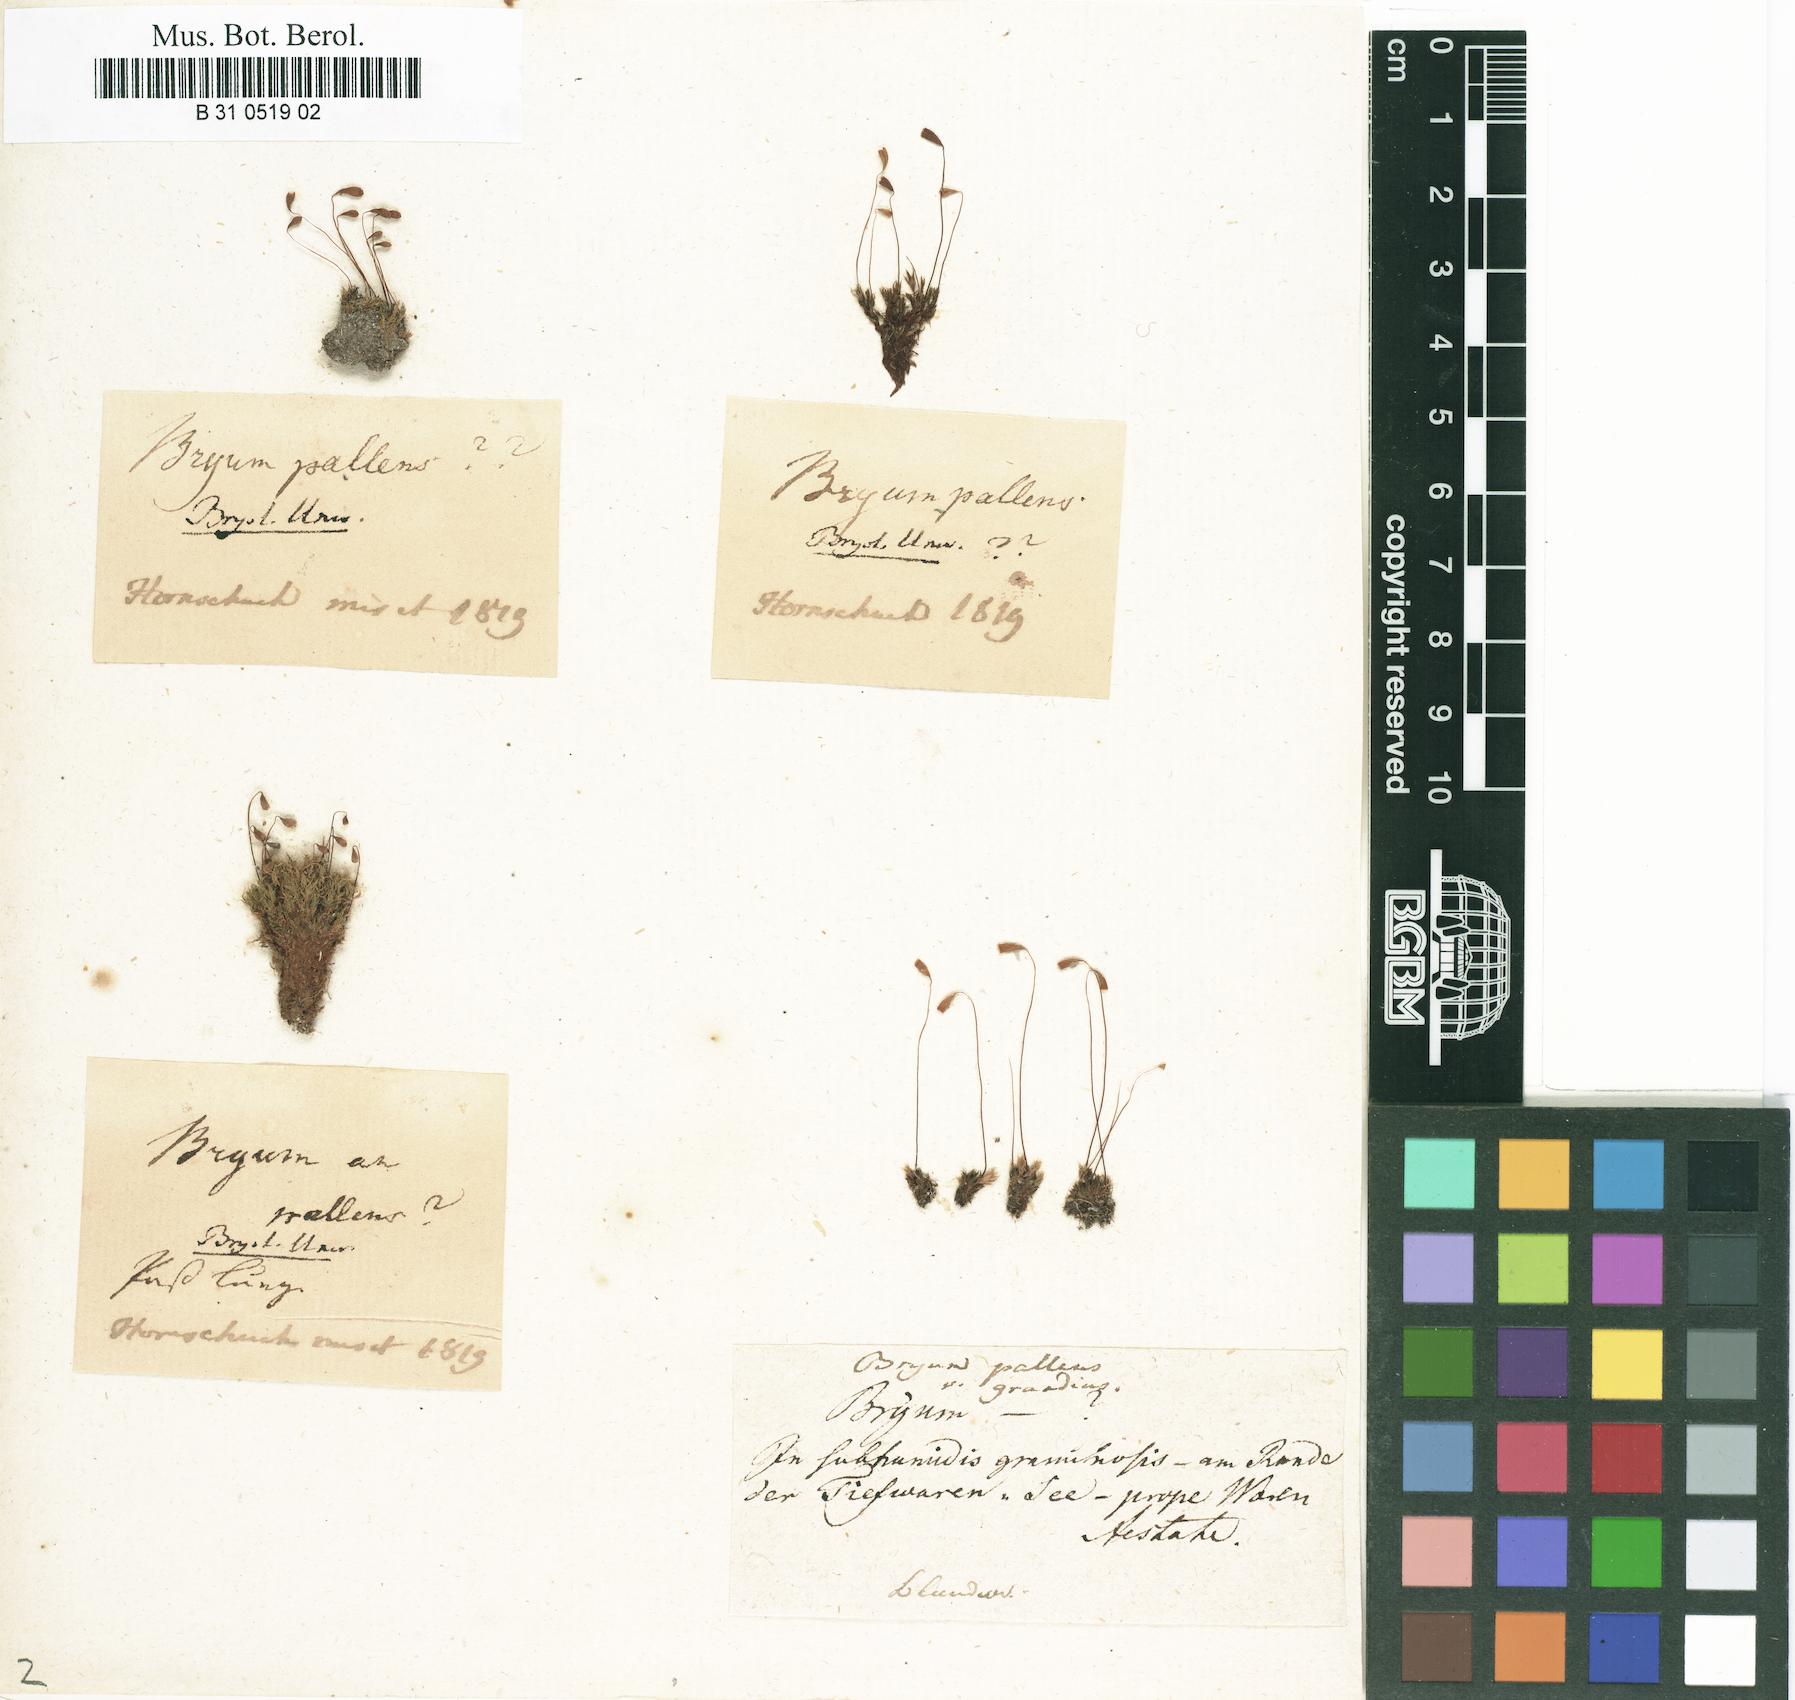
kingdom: Plantae
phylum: Bryophyta
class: Bryopsida
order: Bryales
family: Bryaceae
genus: Ptychostomum
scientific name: Ptychostomum pallens
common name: Pale thread-moss
